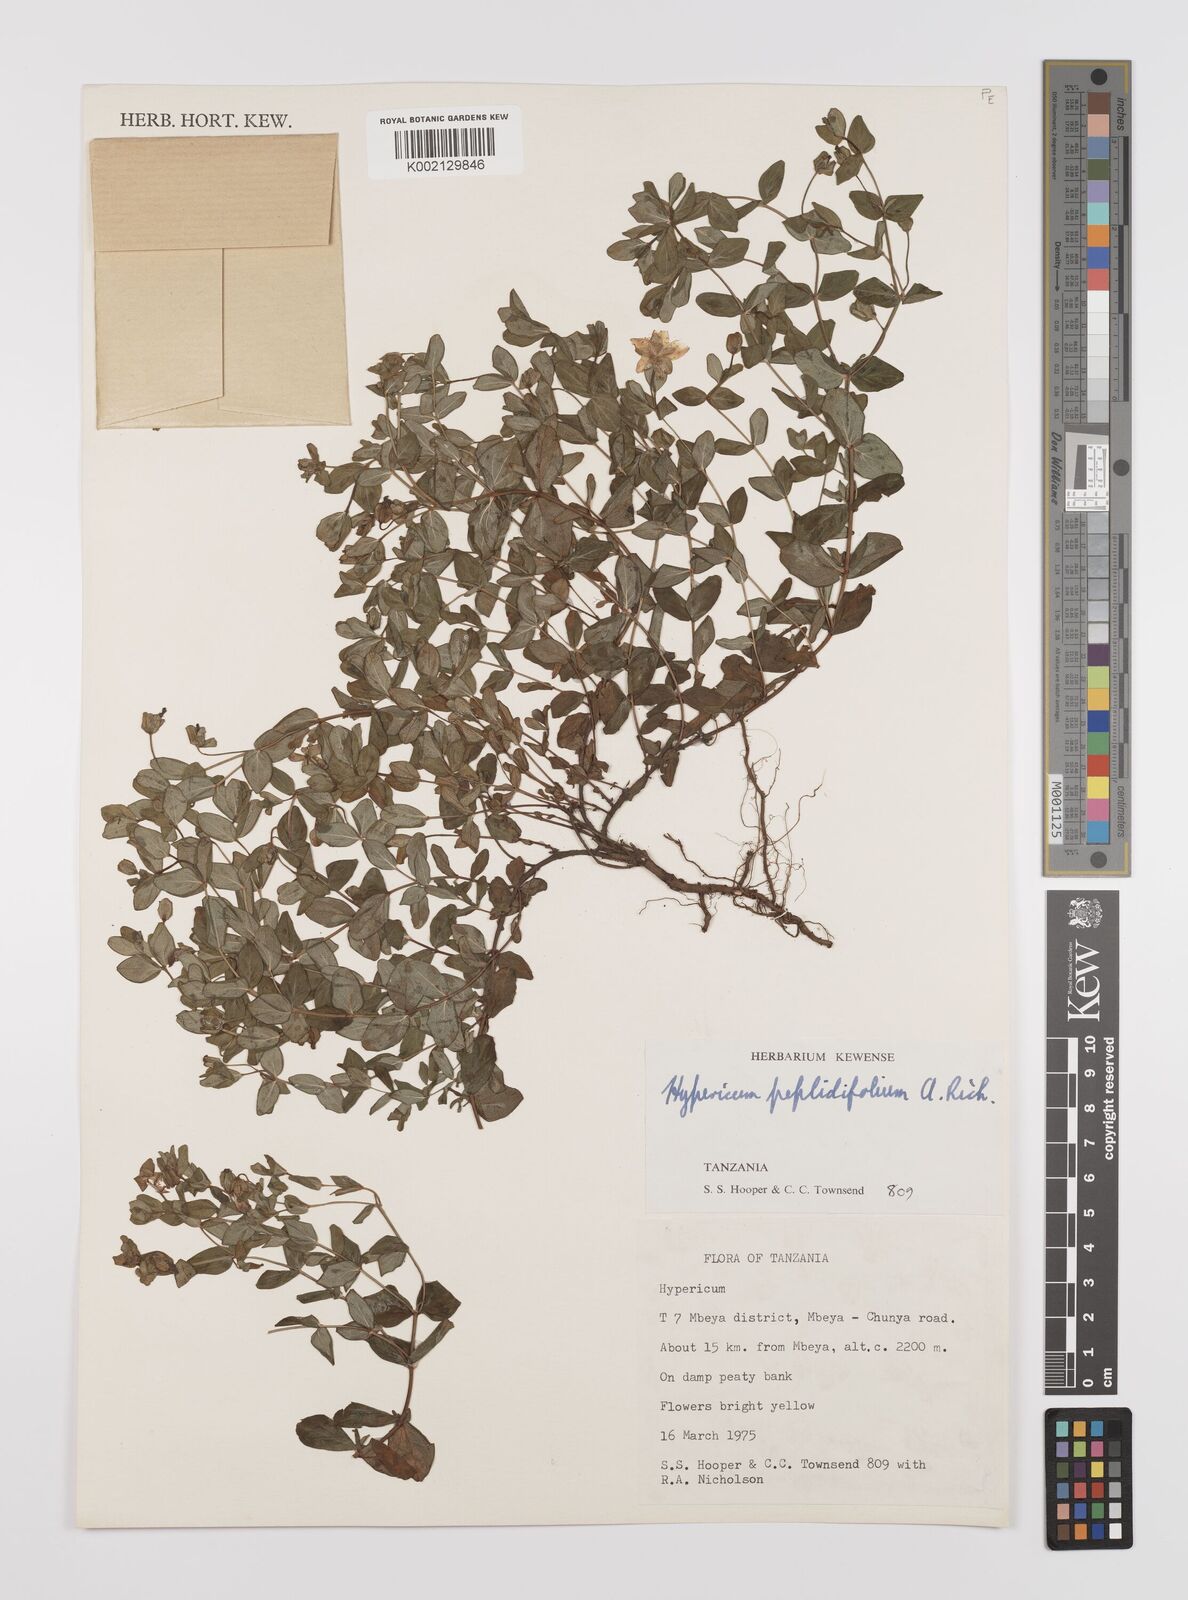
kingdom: Plantae
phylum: Tracheophyta
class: Magnoliopsida
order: Malpighiales
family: Hypericaceae
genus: Hypericum
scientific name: Hypericum peplidifolium
